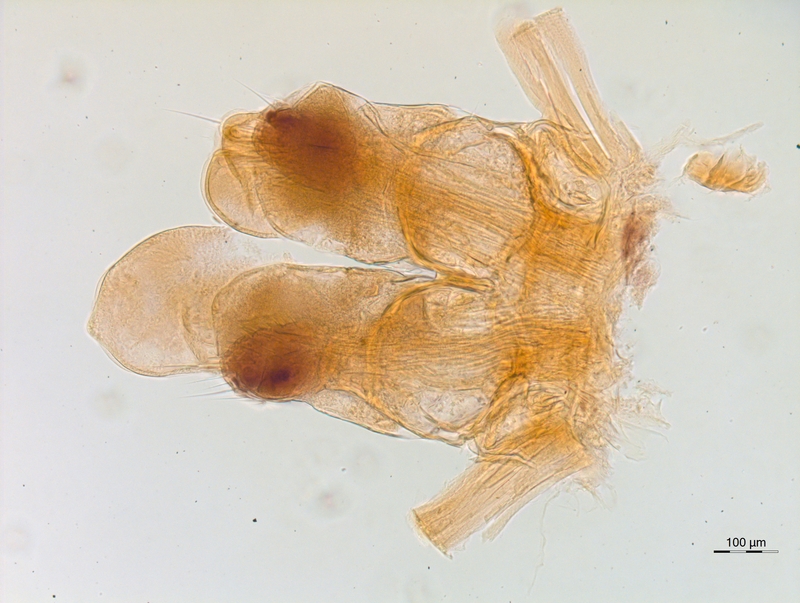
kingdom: Animalia
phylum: Arthropoda
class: Diplopoda
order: Chordeumatida
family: Chordeumatidae
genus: Mycogona
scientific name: Mycogona germanica
